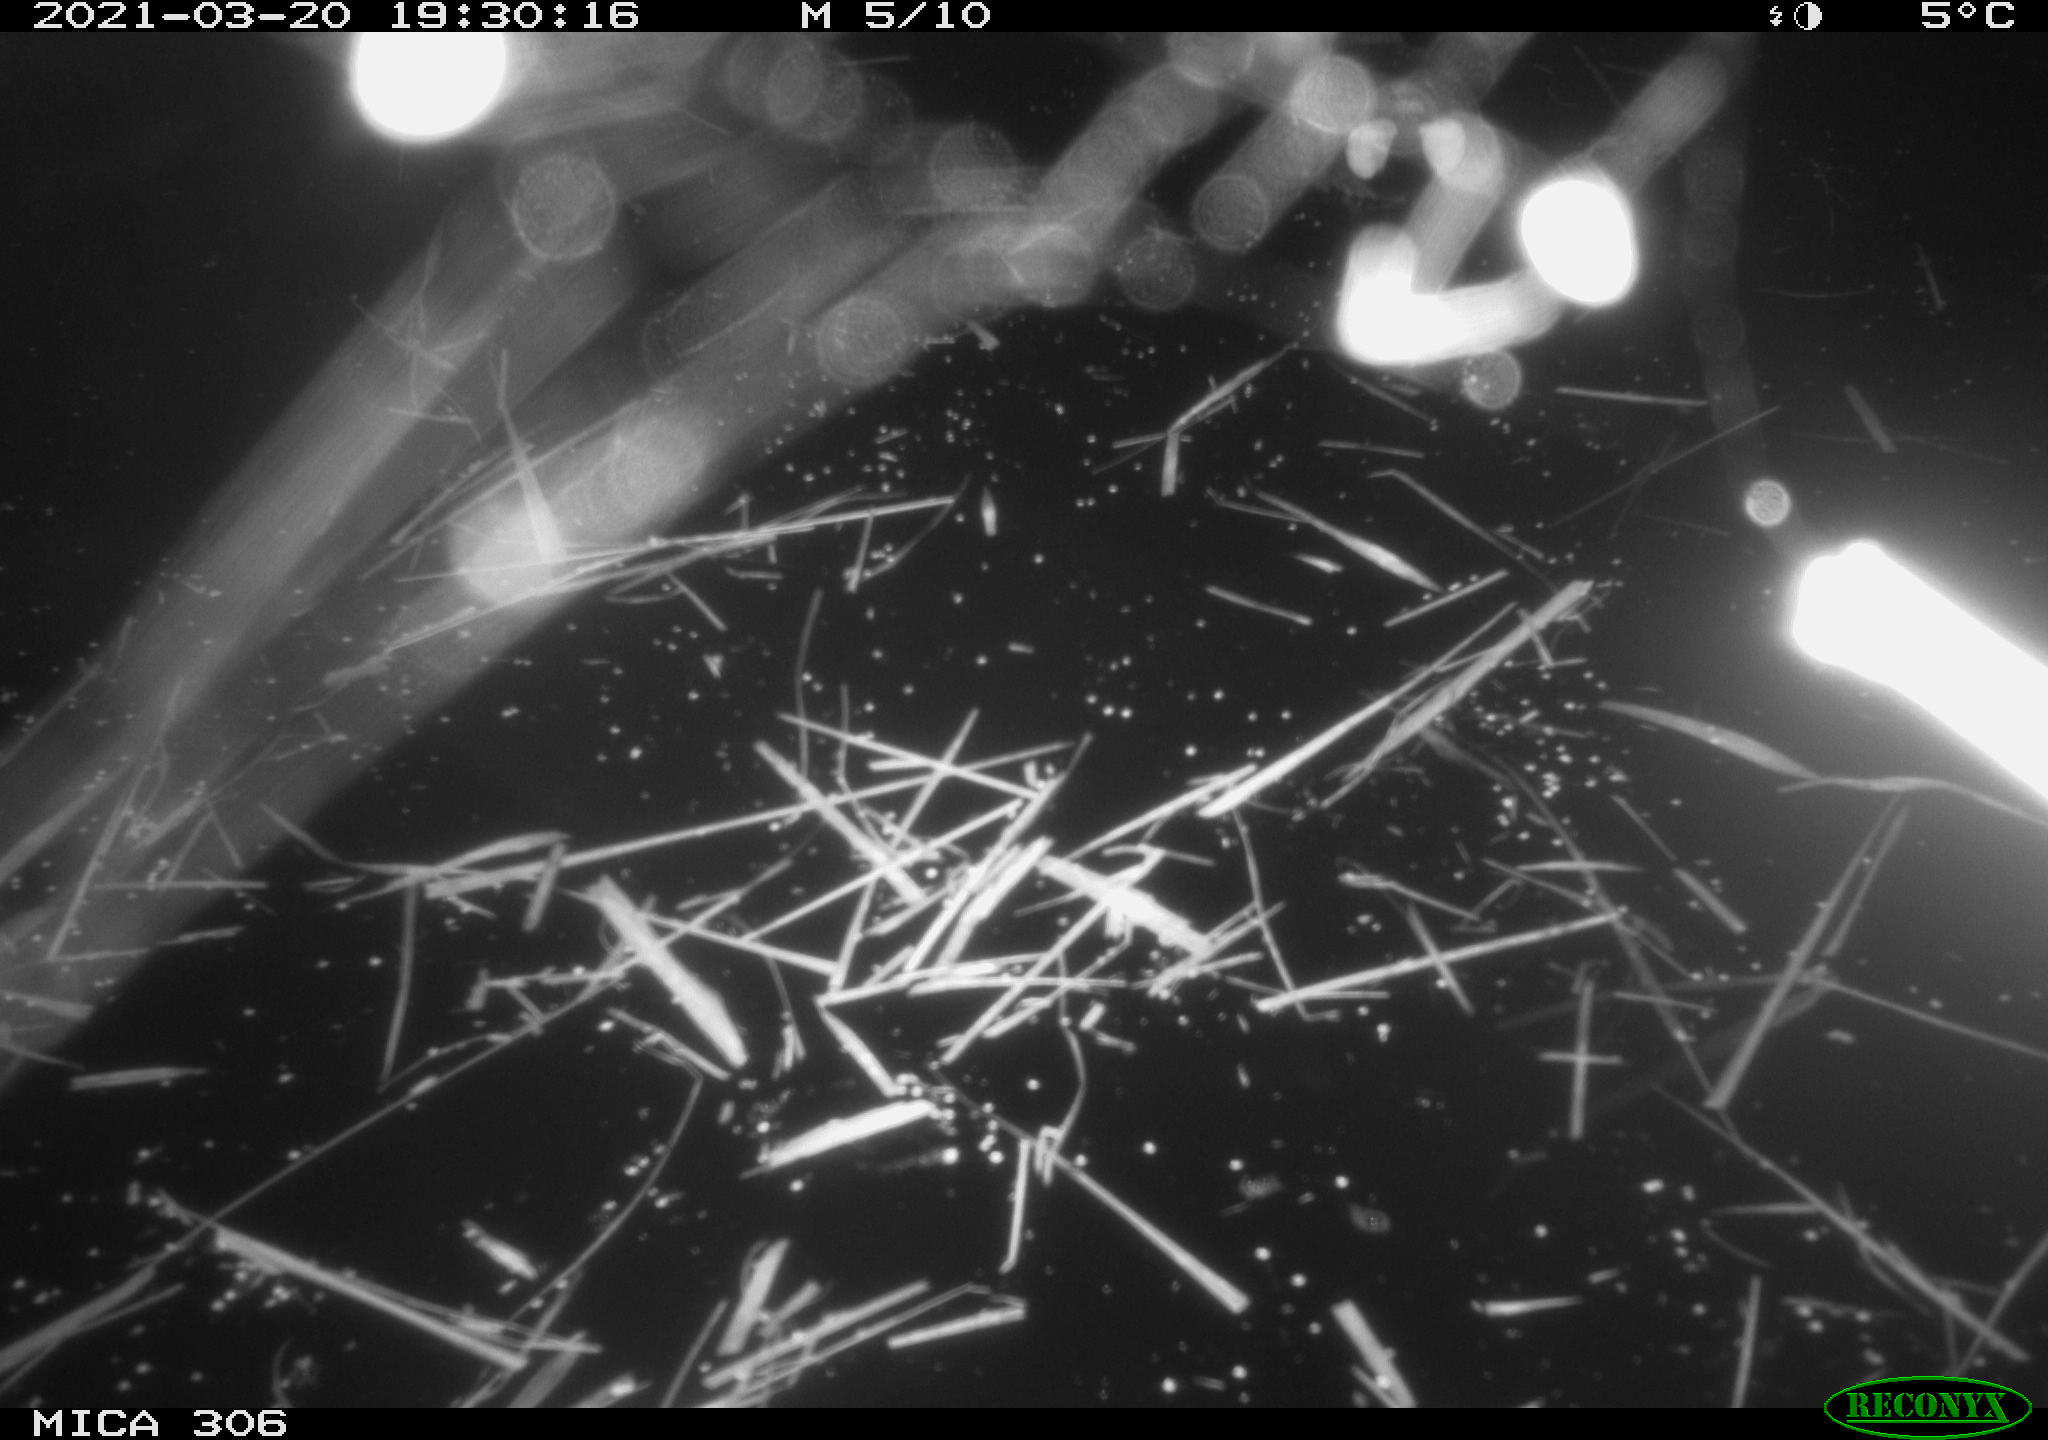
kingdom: Animalia
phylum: Chordata
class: Aves
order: Gruiformes
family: Rallidae
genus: Gallinula
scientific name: Gallinula chloropus
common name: Common moorhen
